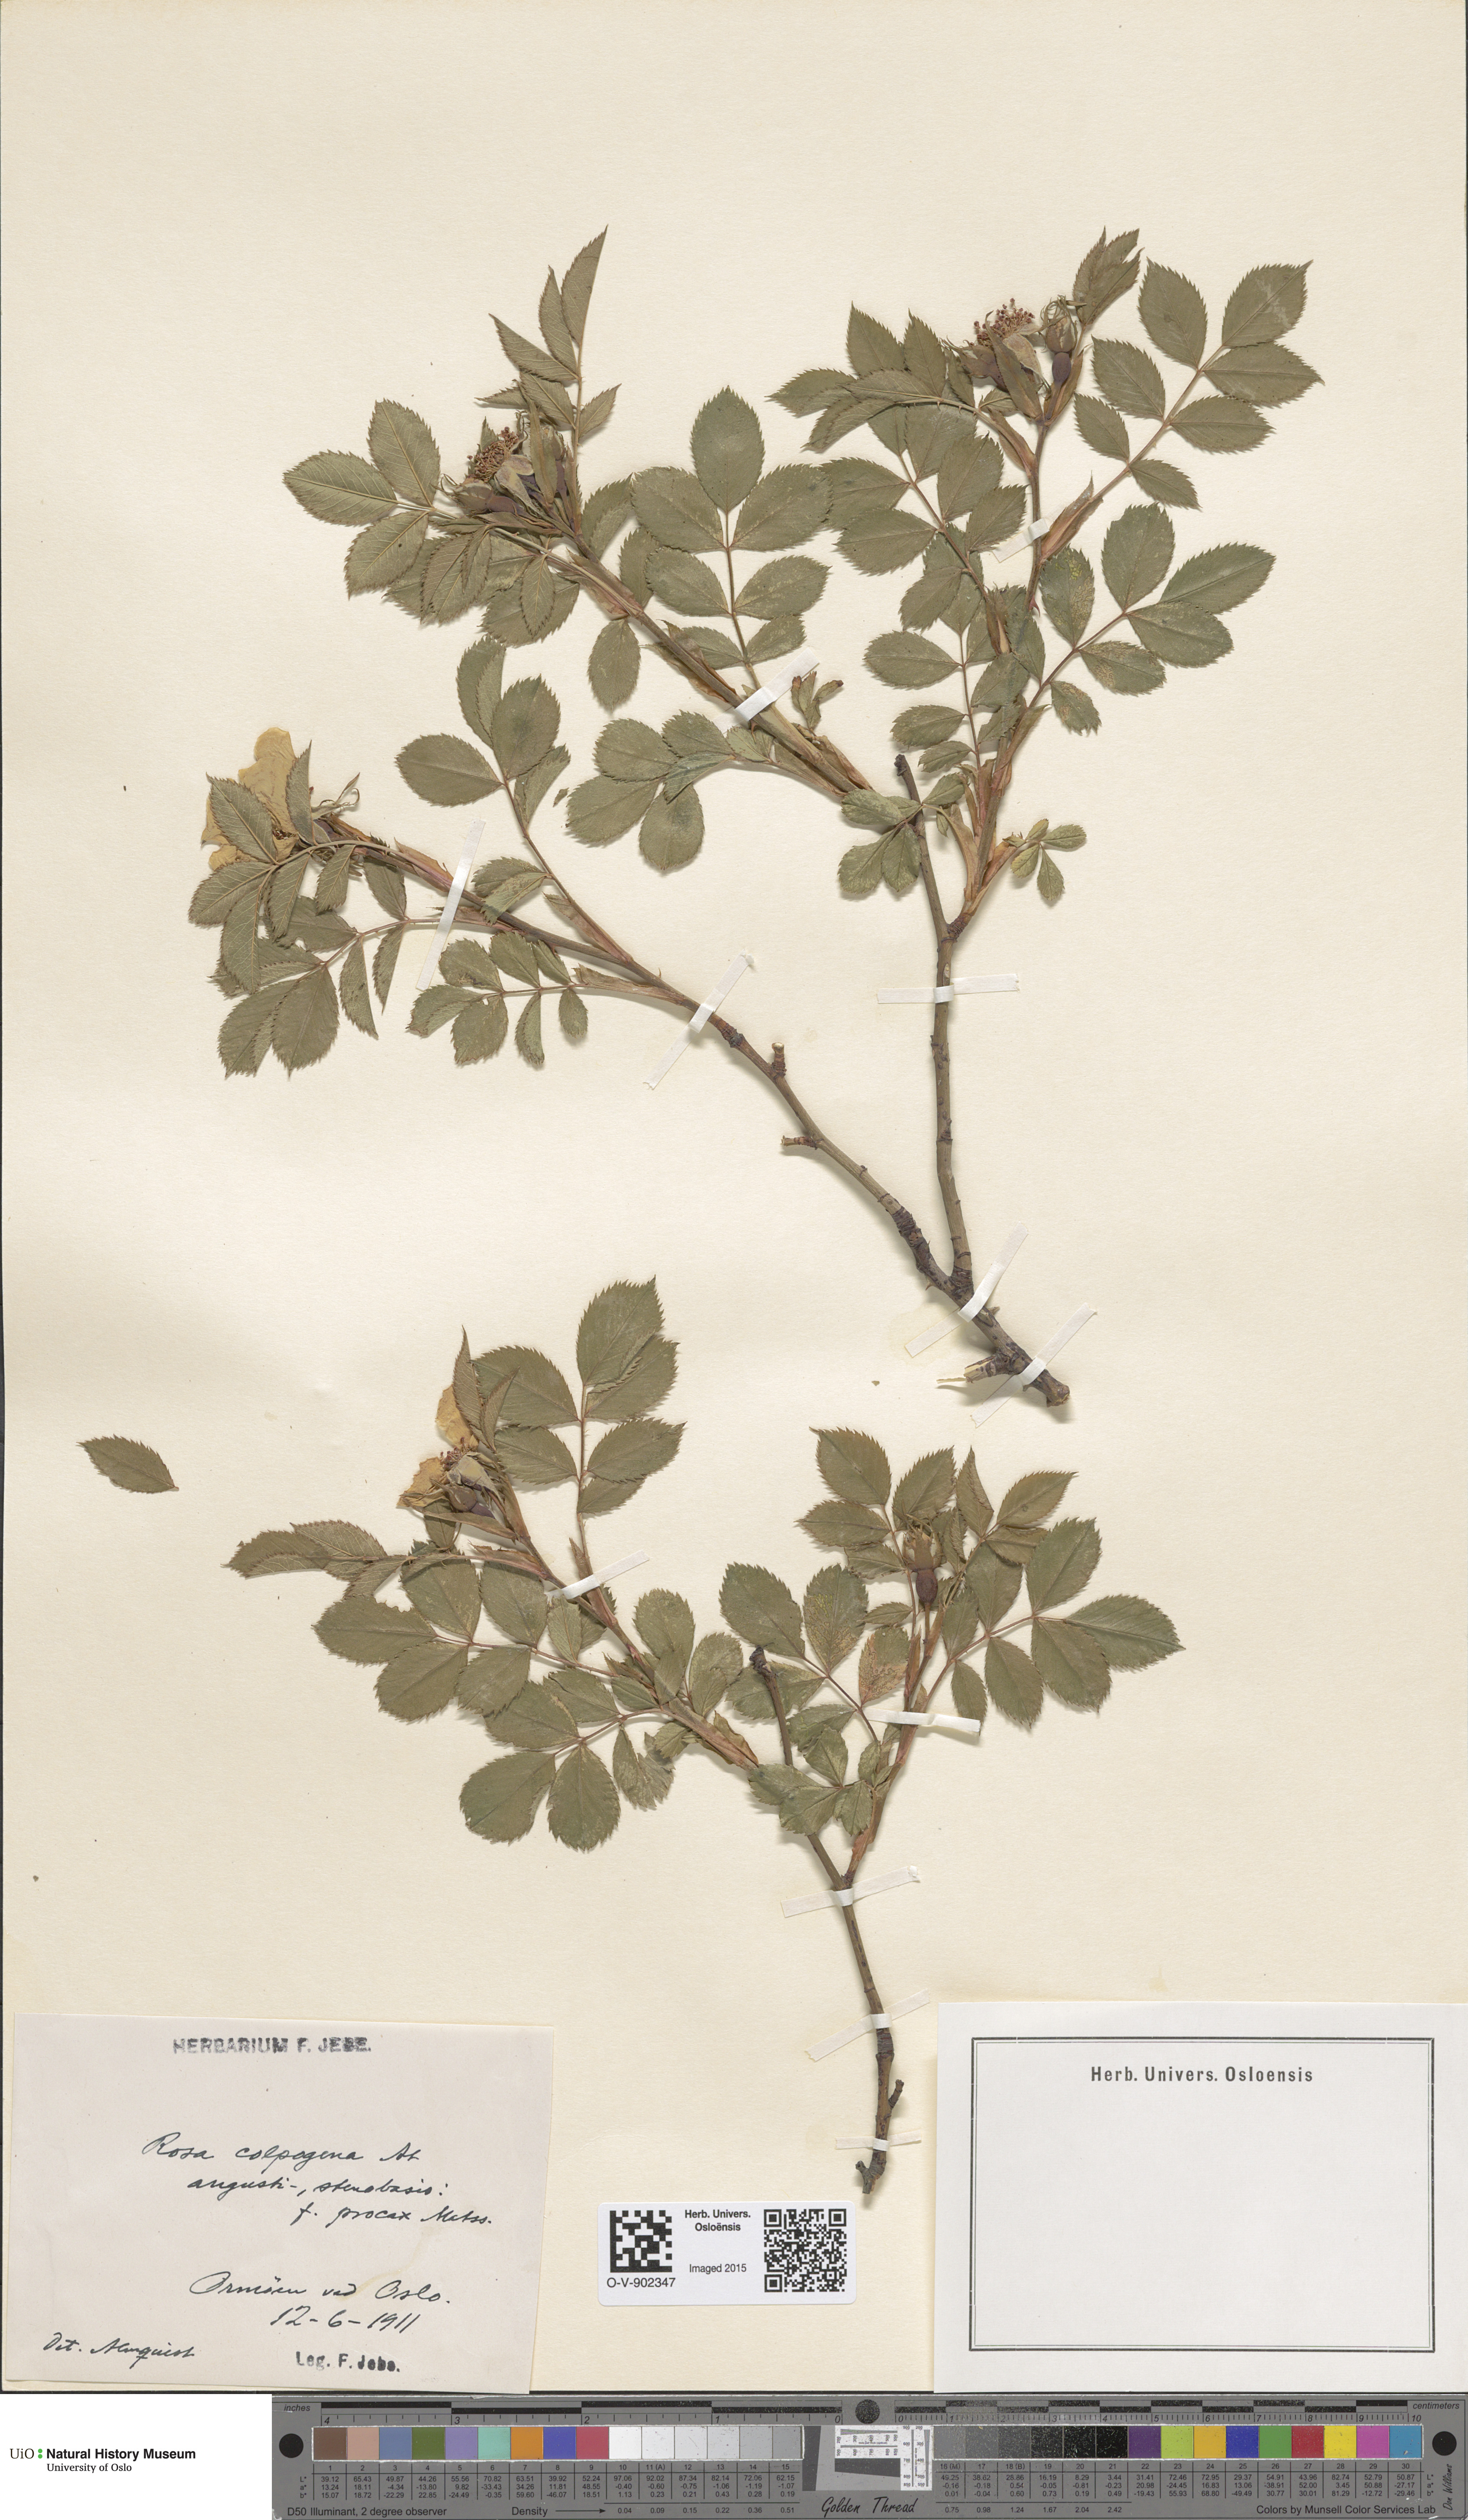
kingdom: Plantae
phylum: Tracheophyta
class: Magnoliopsida
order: Rosales
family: Rosaceae
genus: Rosa
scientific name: Rosa subcanina
